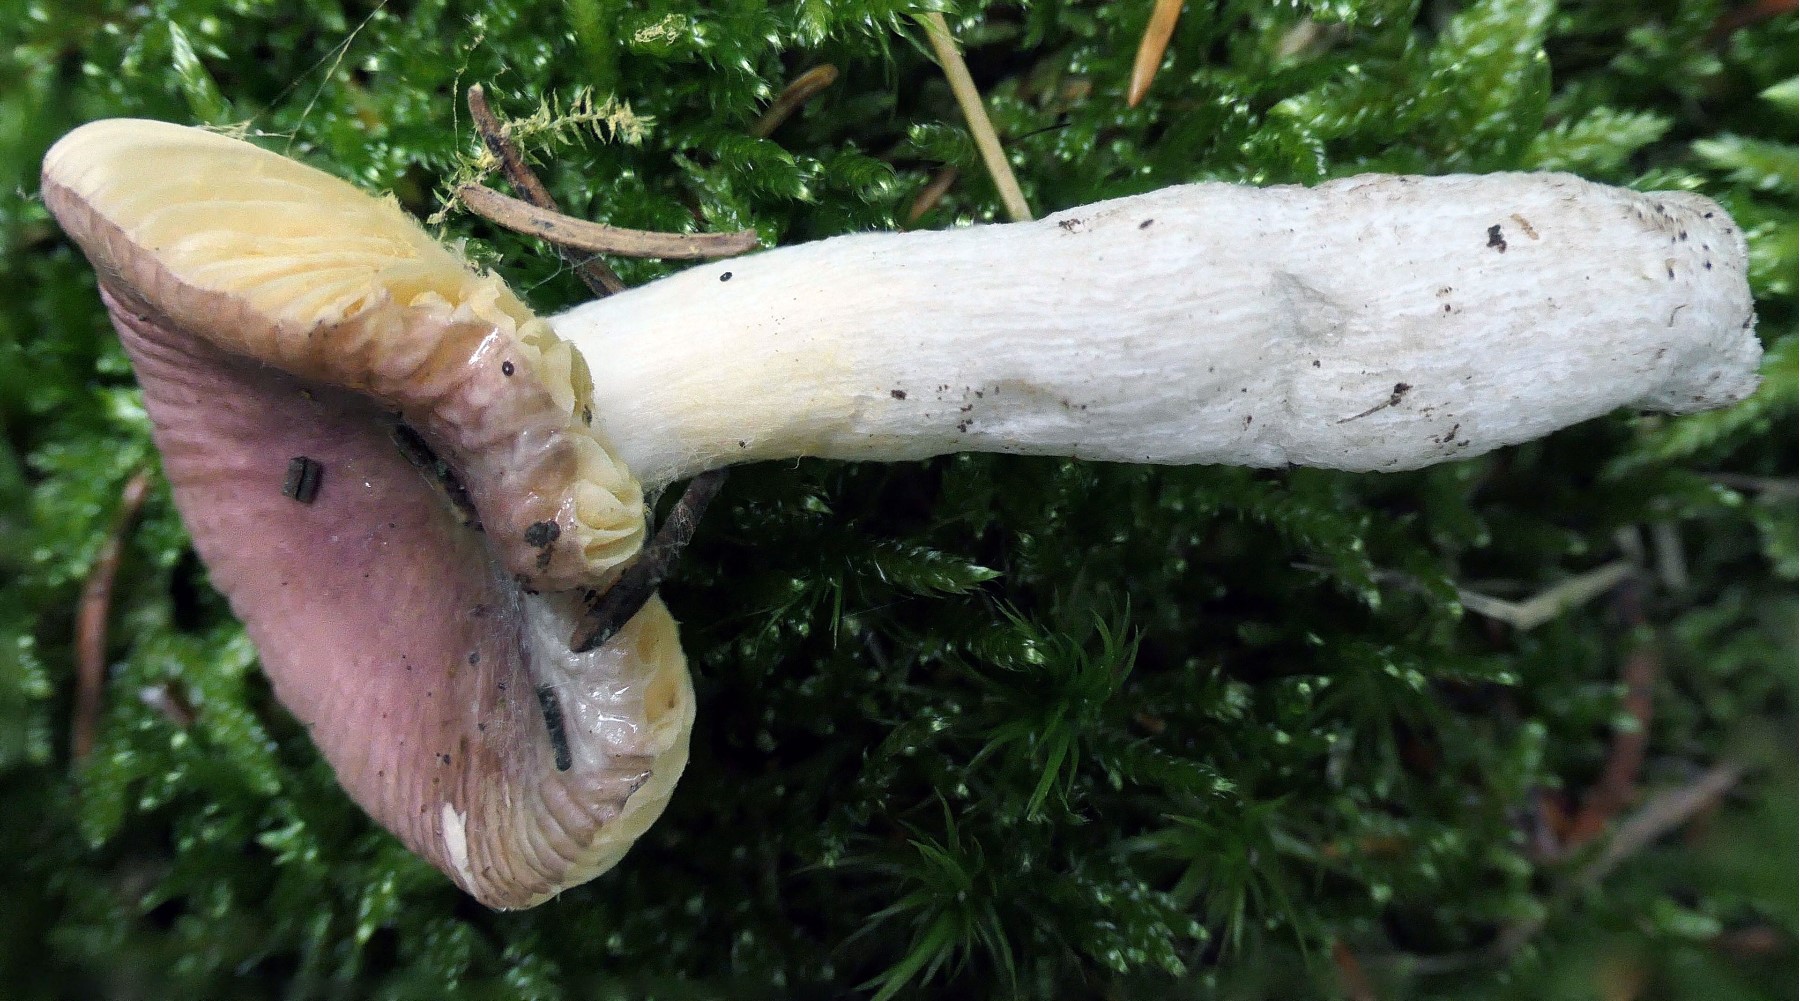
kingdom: Fungi
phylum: Basidiomycota
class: Agaricomycetes
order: Russulales
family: Russulaceae
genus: Russula
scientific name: Russula nauseosa
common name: spinkel skørhat
